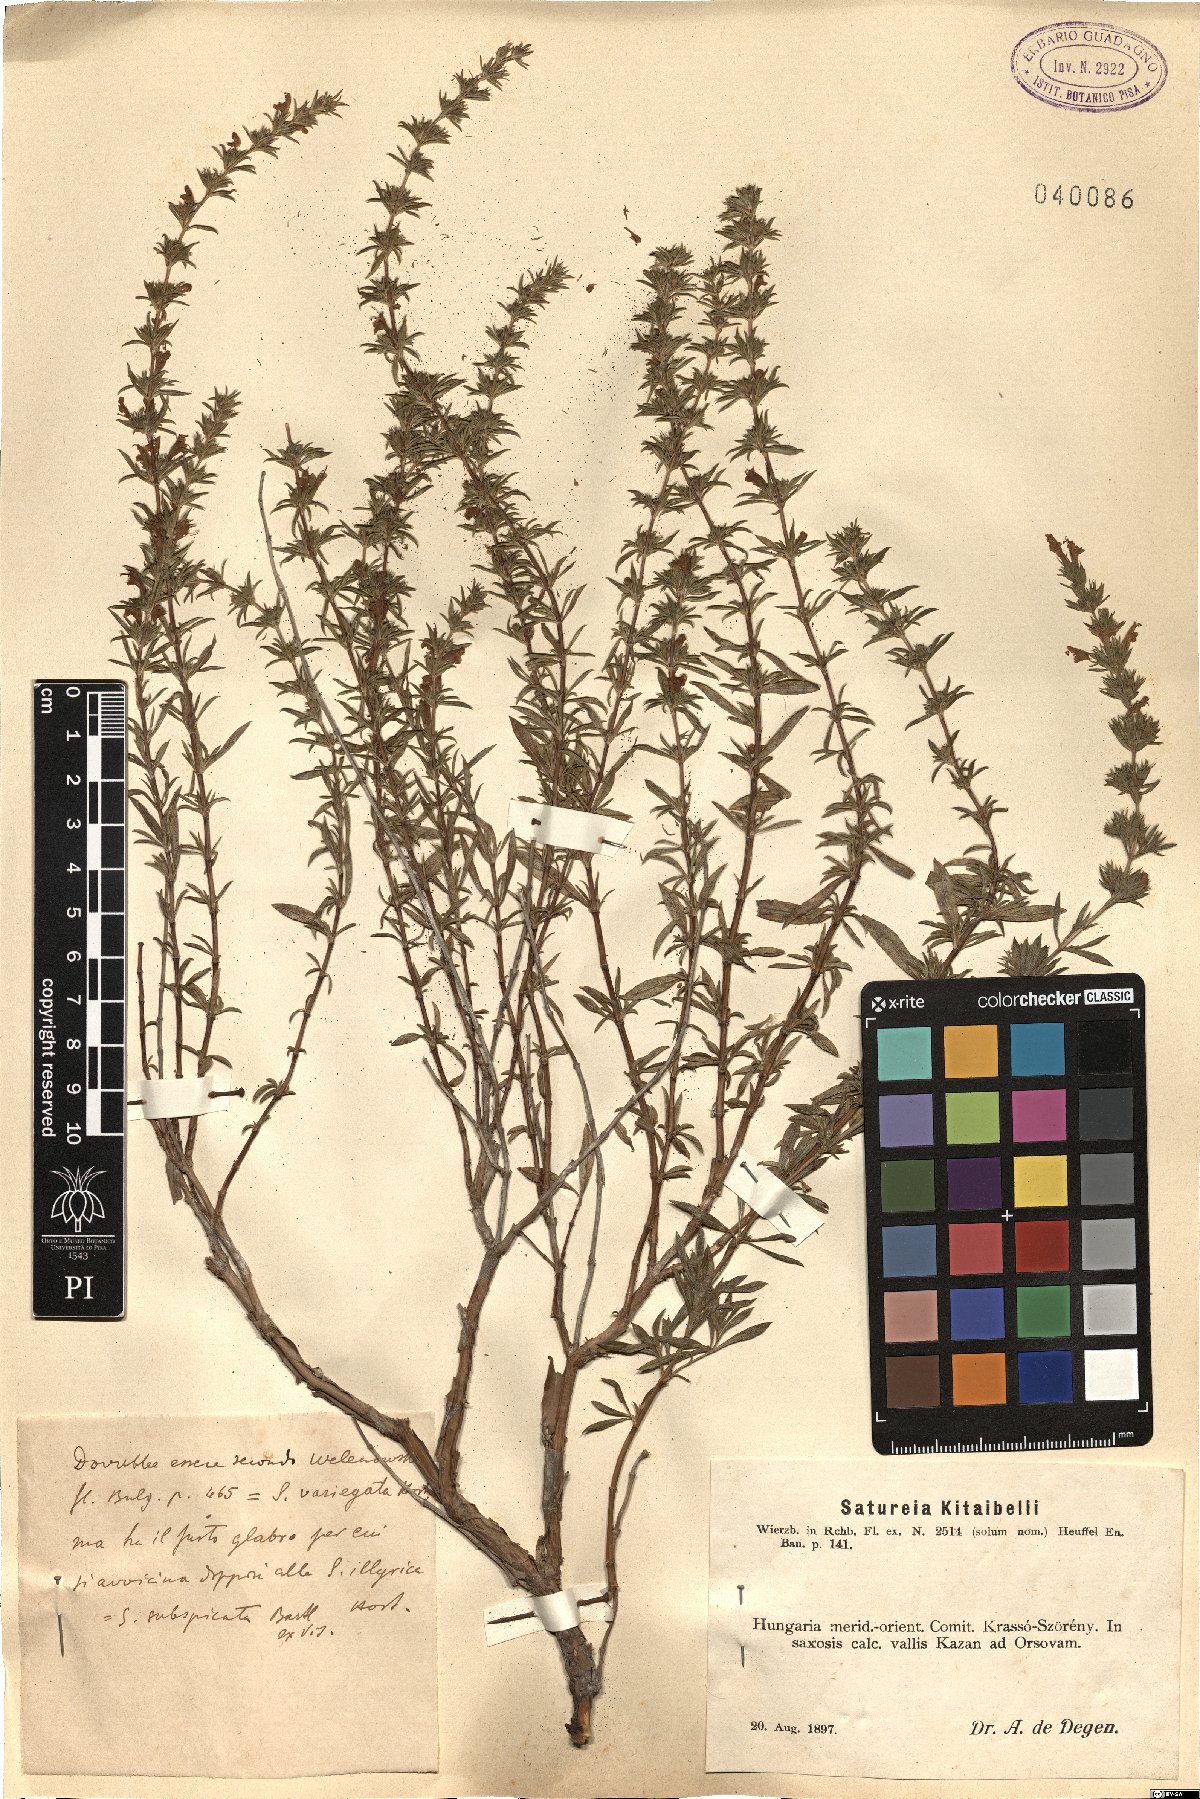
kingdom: Plantae
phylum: Tracheophyta
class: Magnoliopsida
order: Lamiales
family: Lamiaceae
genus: Satureja
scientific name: Satureja kitaibelii
